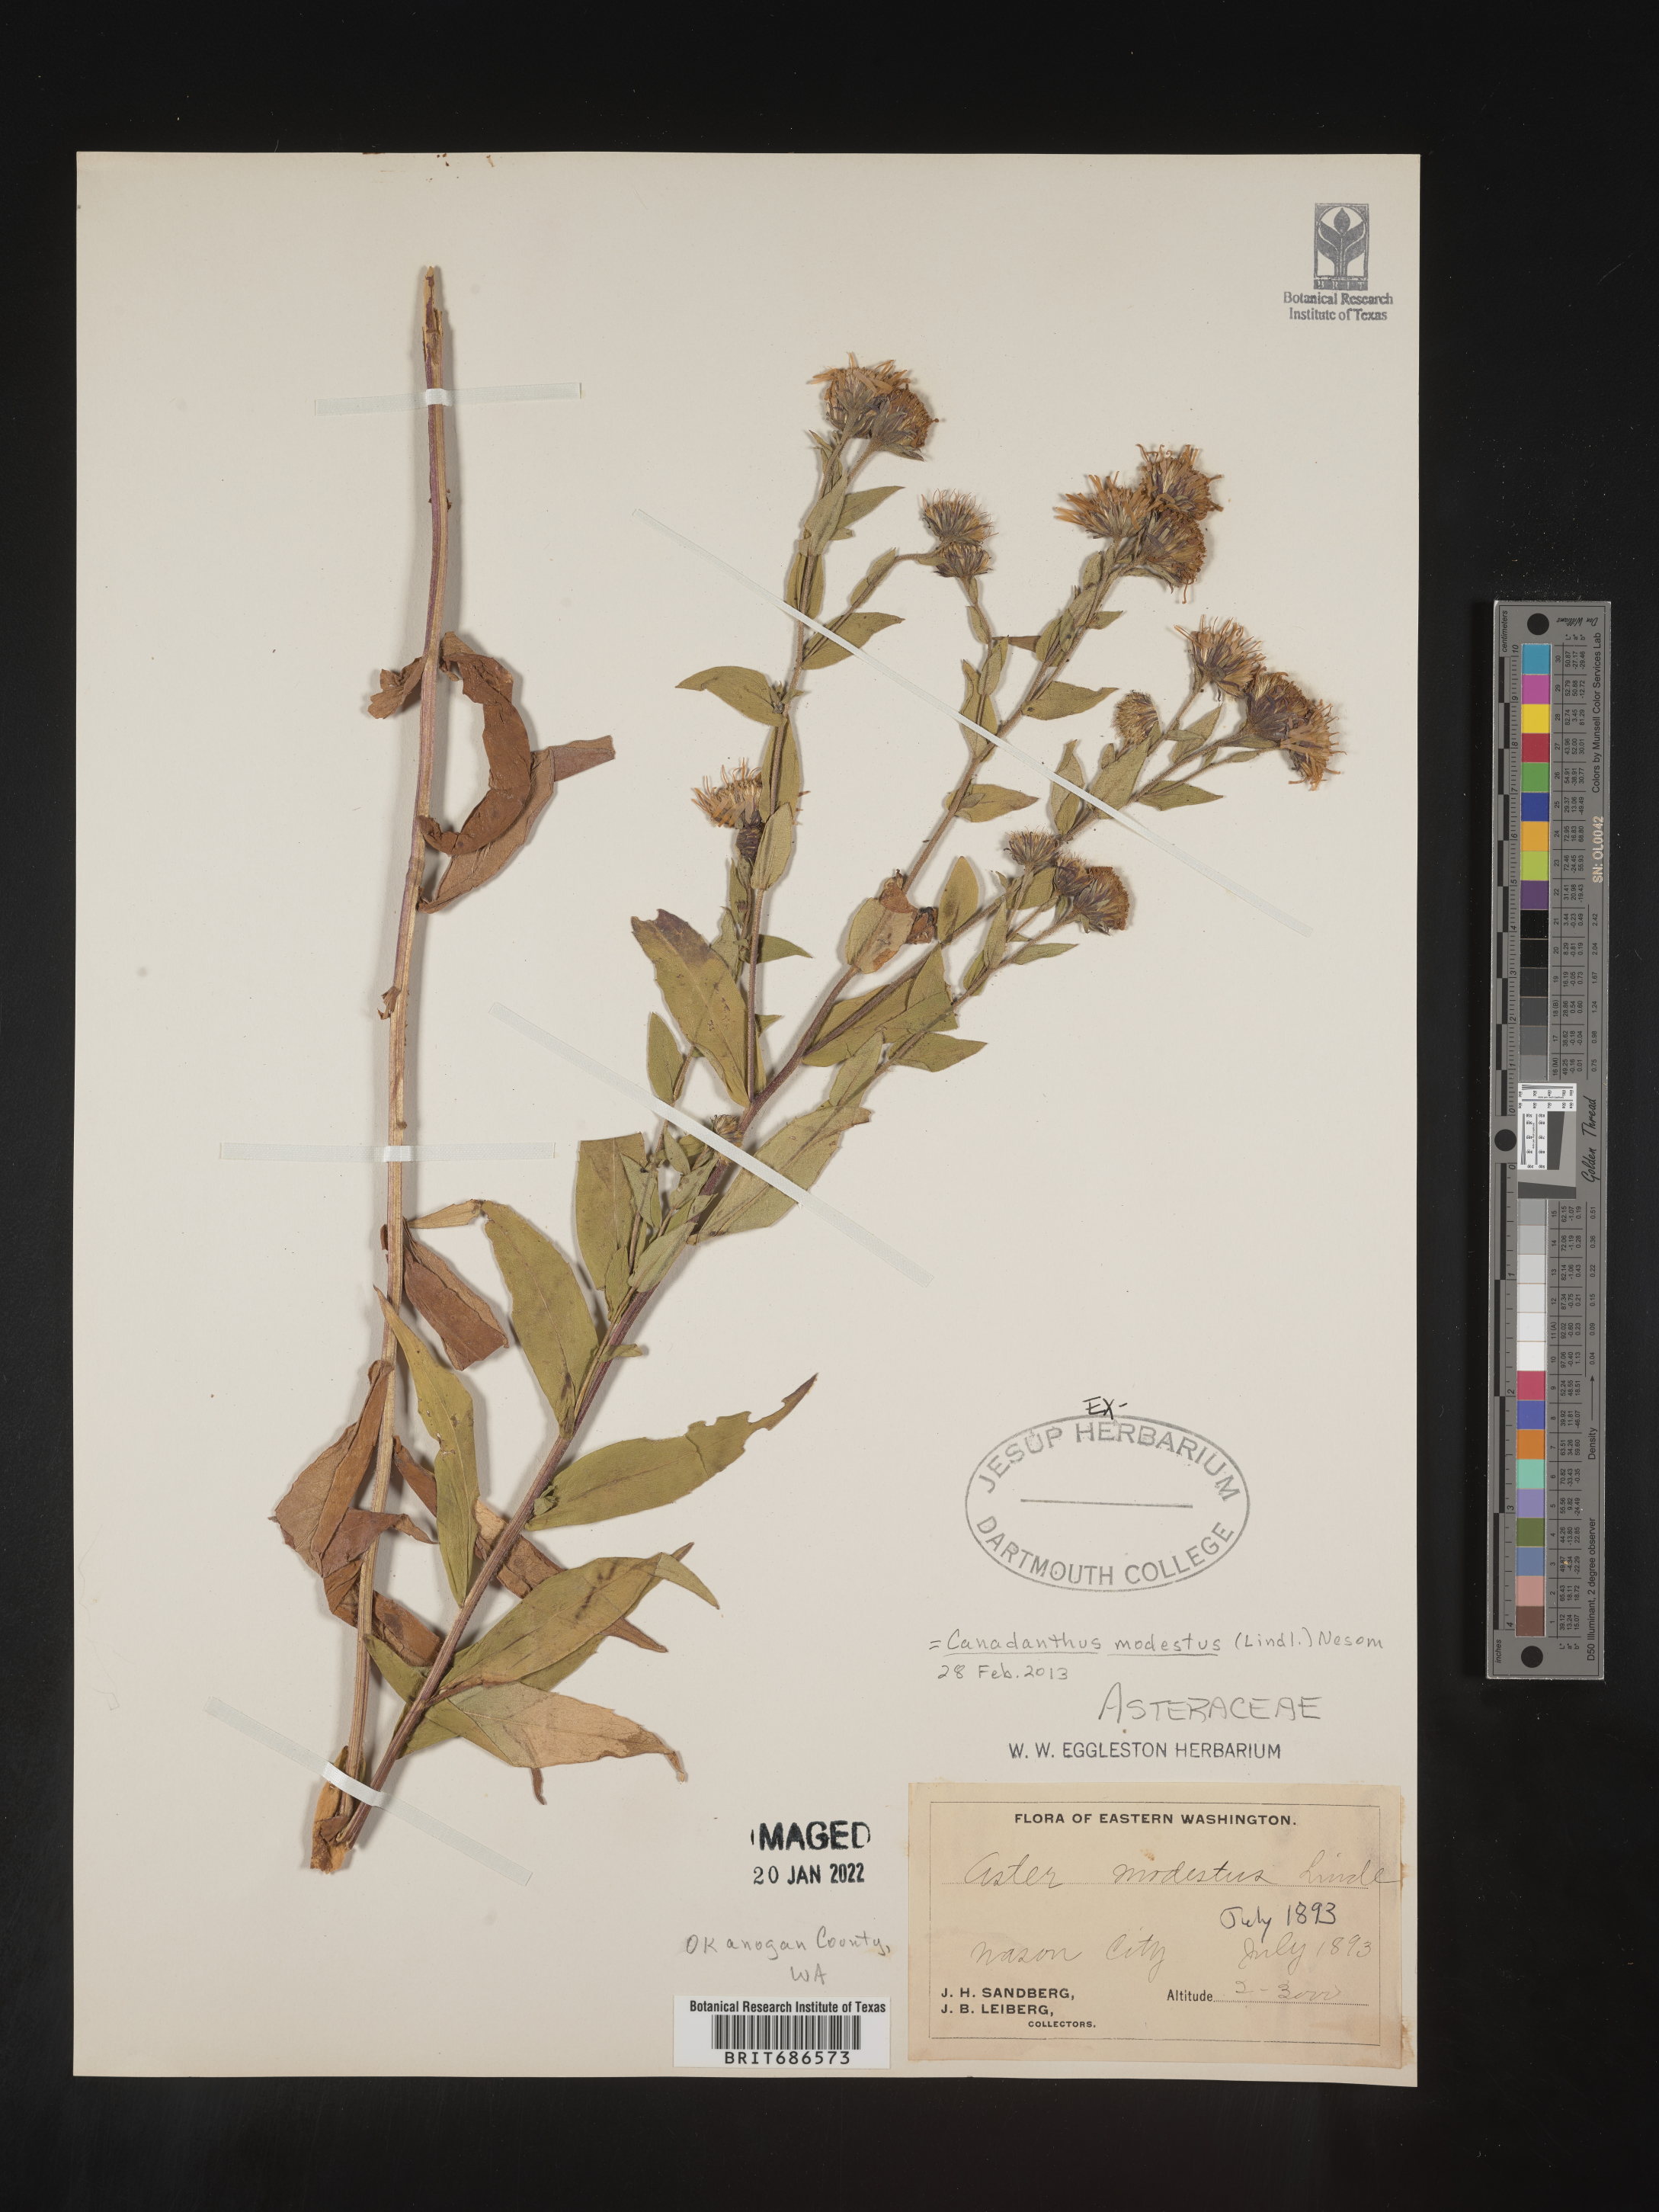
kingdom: Plantae
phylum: Tracheophyta
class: Magnoliopsida
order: Asterales
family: Asteraceae
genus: Canadanthus
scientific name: Canadanthus modestus
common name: Great northern aster
